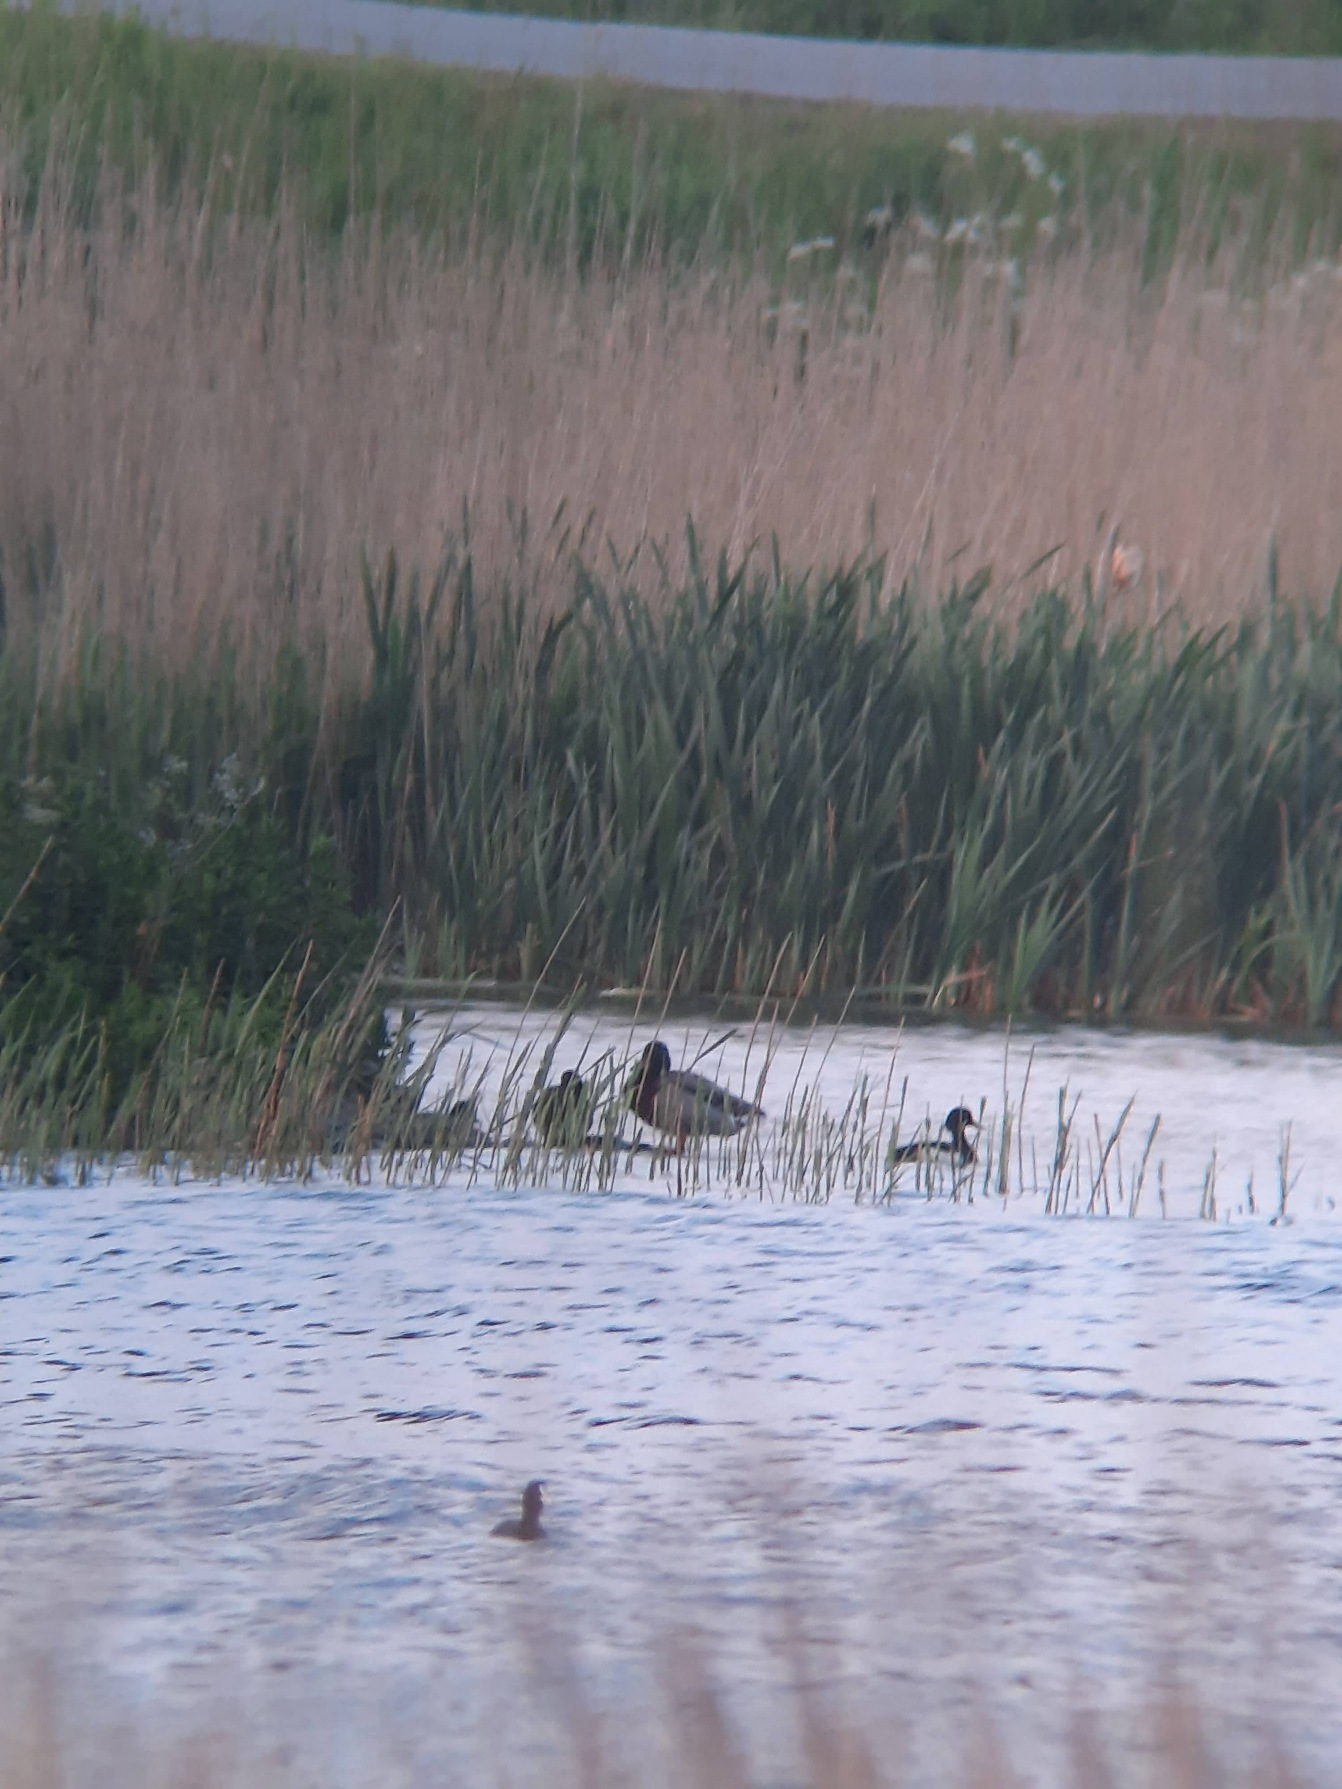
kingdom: Animalia
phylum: Chordata
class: Aves
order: Anseriformes
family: Anatidae
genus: Anas
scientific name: Anas platyrhynchos
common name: Gråand
